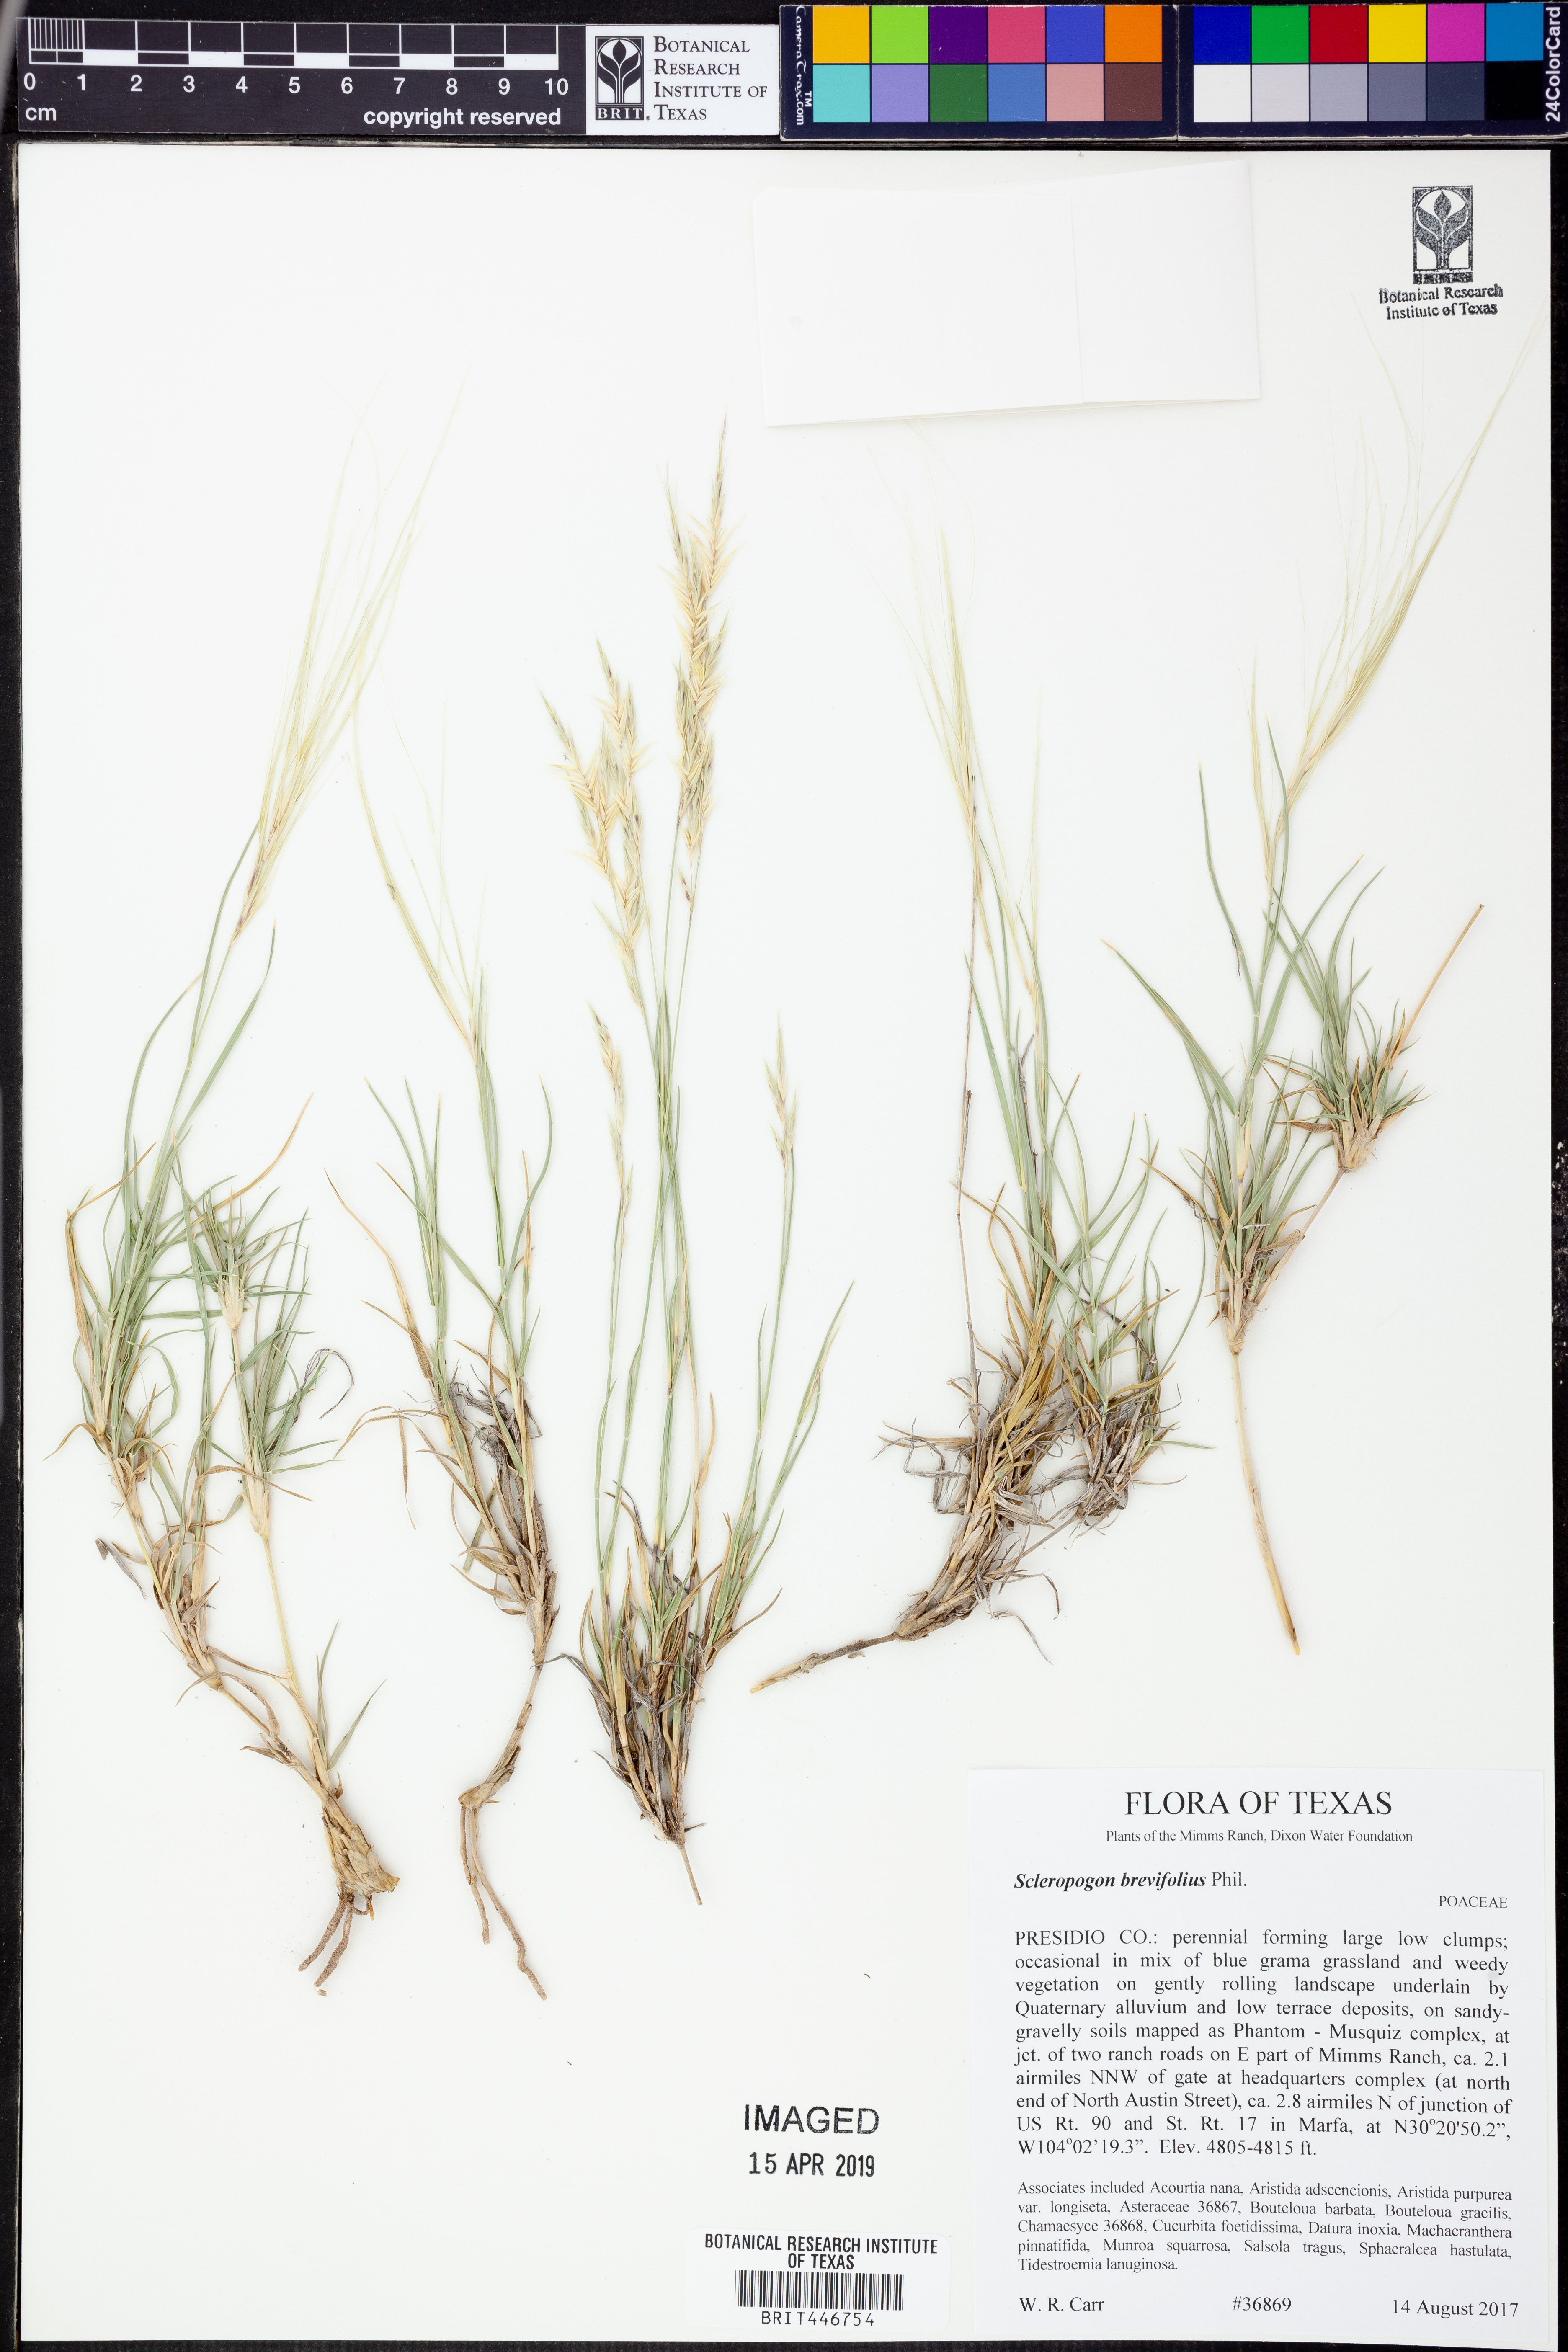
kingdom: Plantae
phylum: Tracheophyta
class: Liliopsida
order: Poales
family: Poaceae
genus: Scleropogon
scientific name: Scleropogon brevifolius
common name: Burro grass
